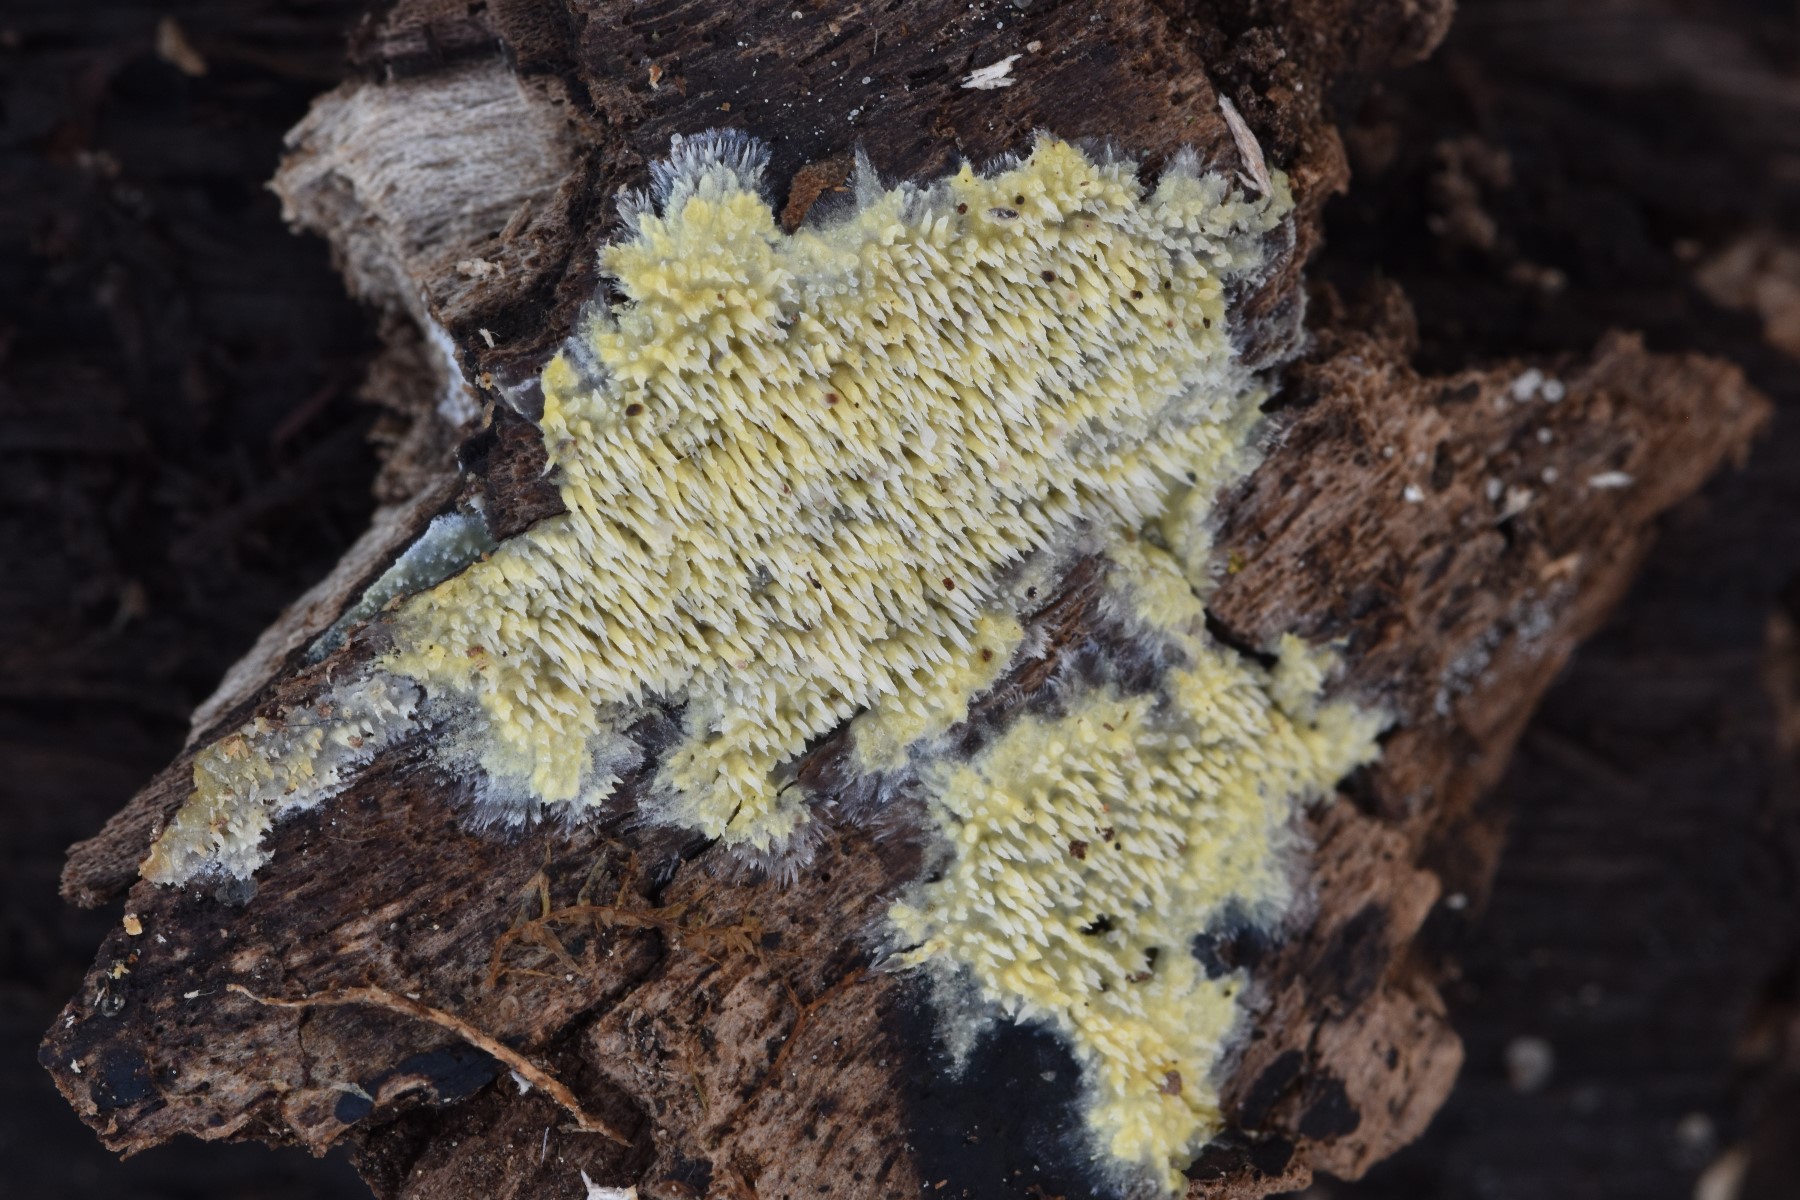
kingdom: Fungi
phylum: Basidiomycota
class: Agaricomycetes
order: Polyporales
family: Meruliaceae
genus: Mycoacia
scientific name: Mycoacia uda
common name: citrongul vokspig
